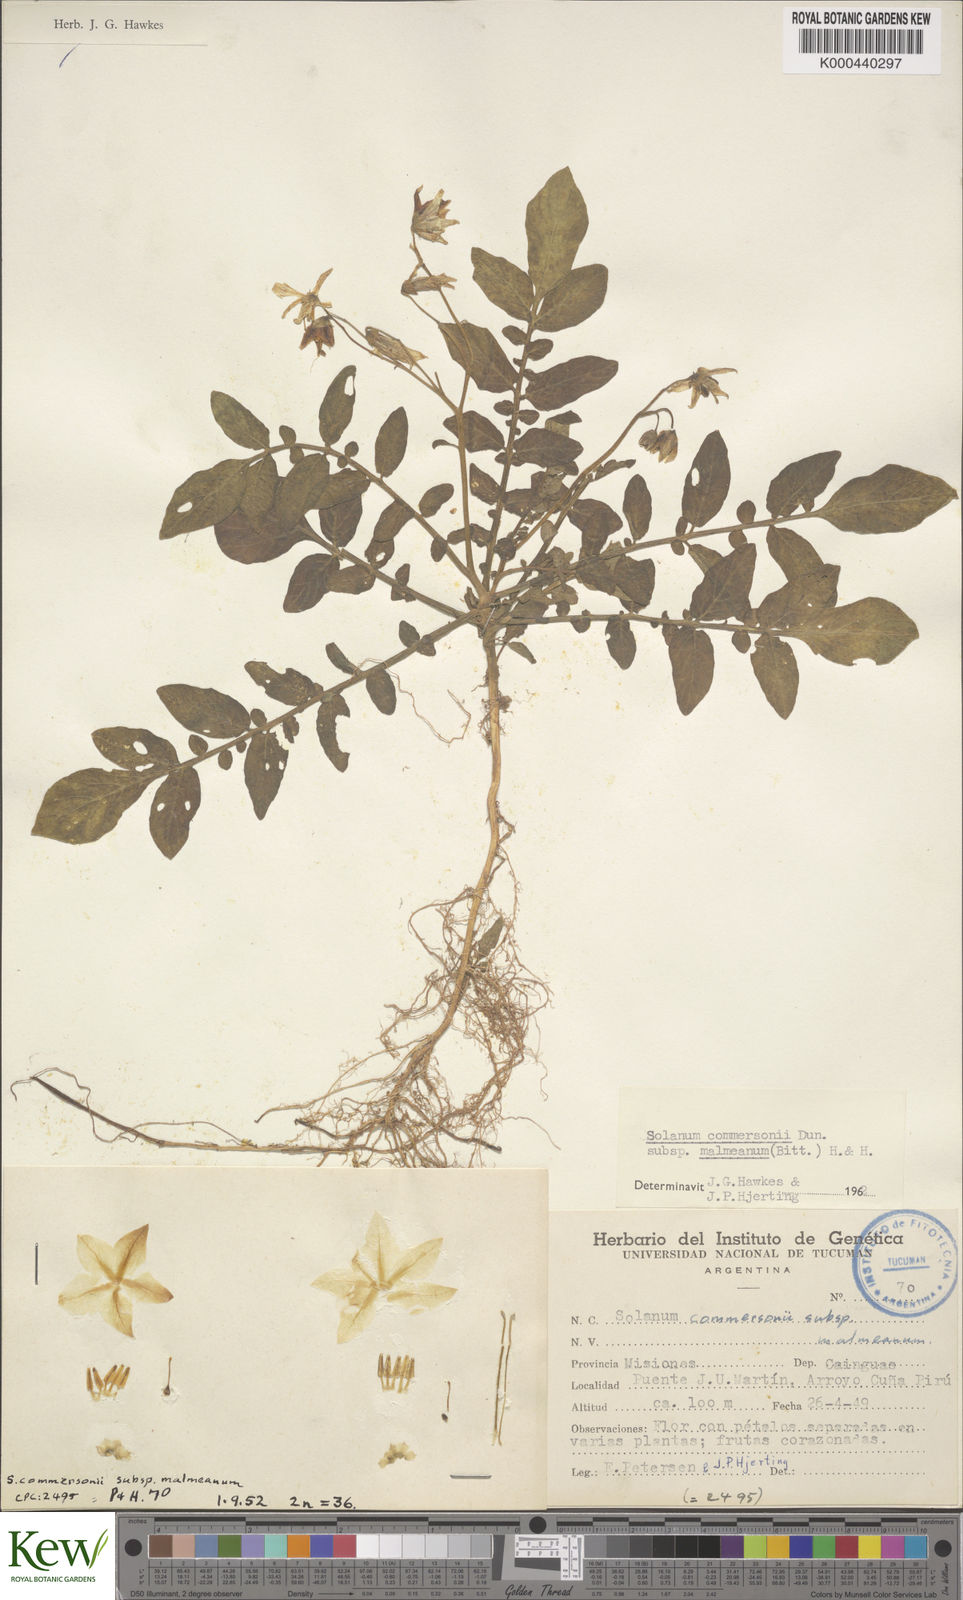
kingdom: Plantae
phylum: Tracheophyta
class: Magnoliopsida
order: Solanales
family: Solanaceae
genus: Solanum
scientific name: Solanum malmeanum
